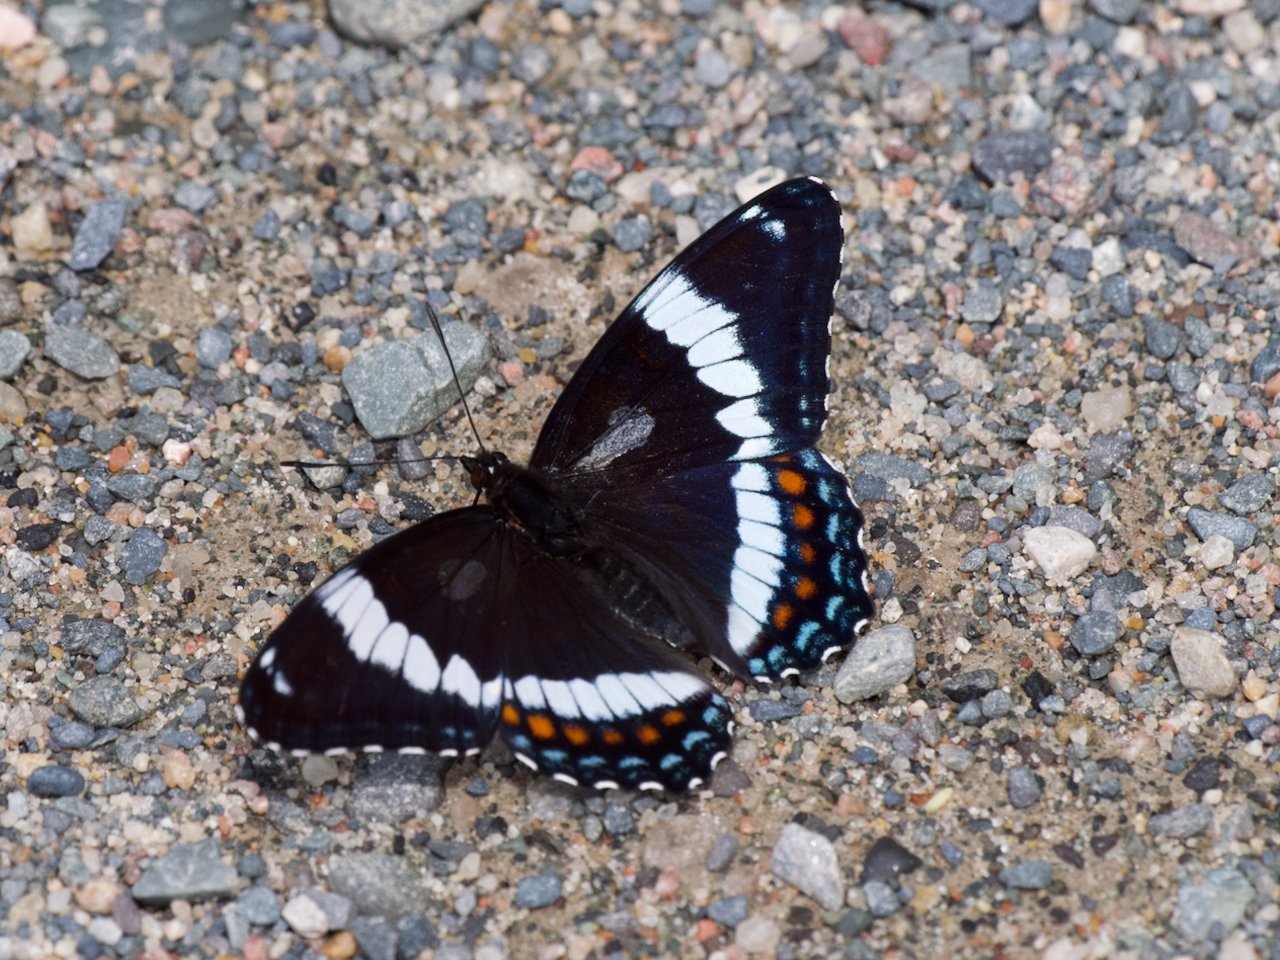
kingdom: Animalia
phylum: Arthropoda
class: Insecta
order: Lepidoptera
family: Nymphalidae
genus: Limenitis
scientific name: Limenitis arthemis
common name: Red-spotted Admiral
